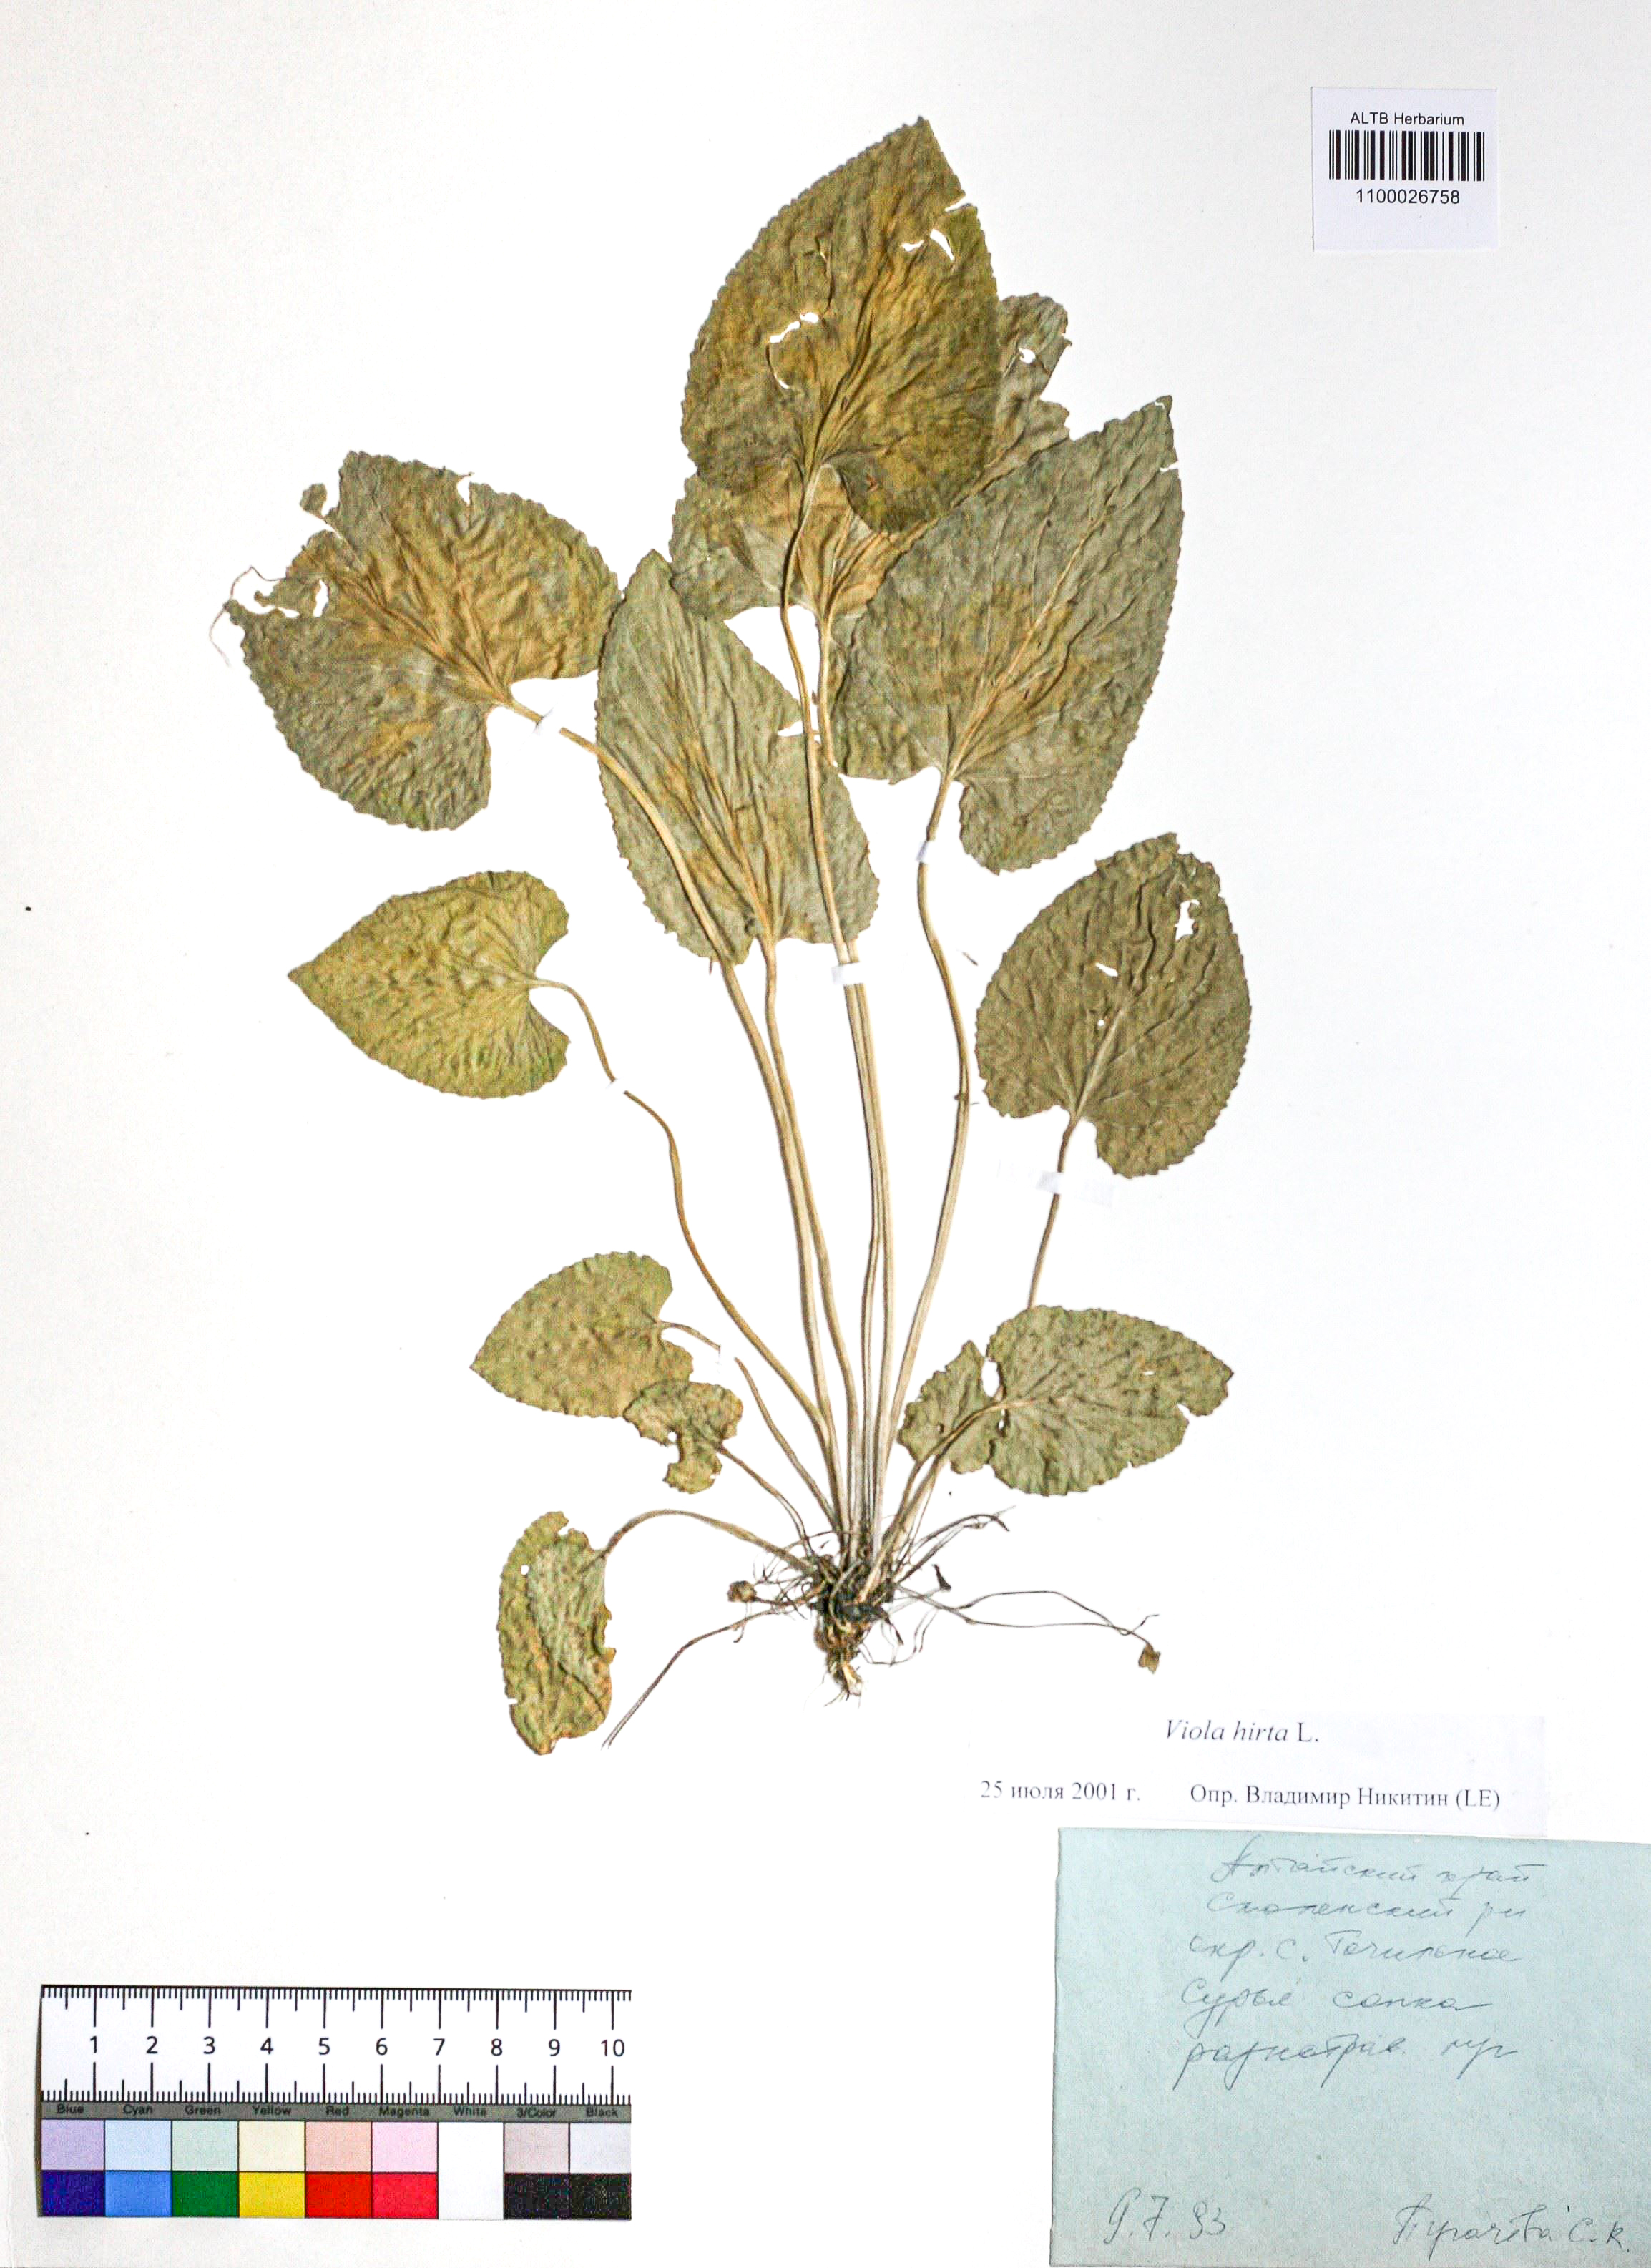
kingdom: Plantae
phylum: Tracheophyta
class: Magnoliopsida
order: Malpighiales
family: Violaceae
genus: Viola
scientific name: Viola hirta
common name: Hairy violet
